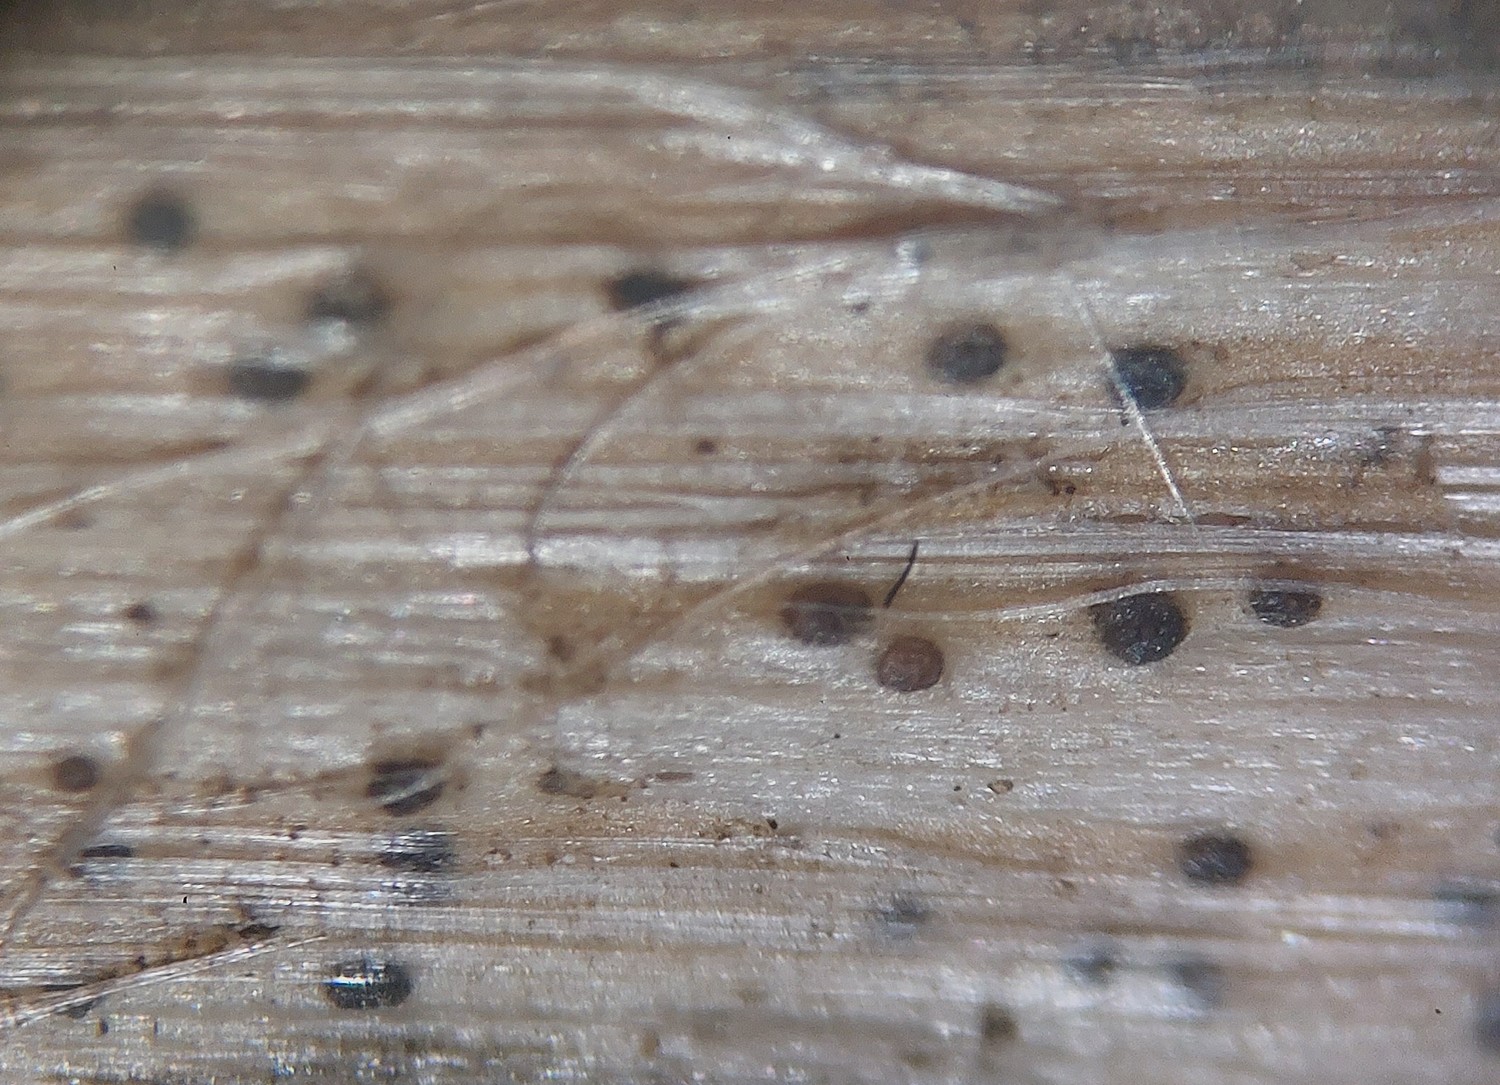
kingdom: Fungi
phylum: Ascomycota
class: Dothideomycetes
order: Pleosporales
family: Didymellaceae
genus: Phoma
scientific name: Phoma
